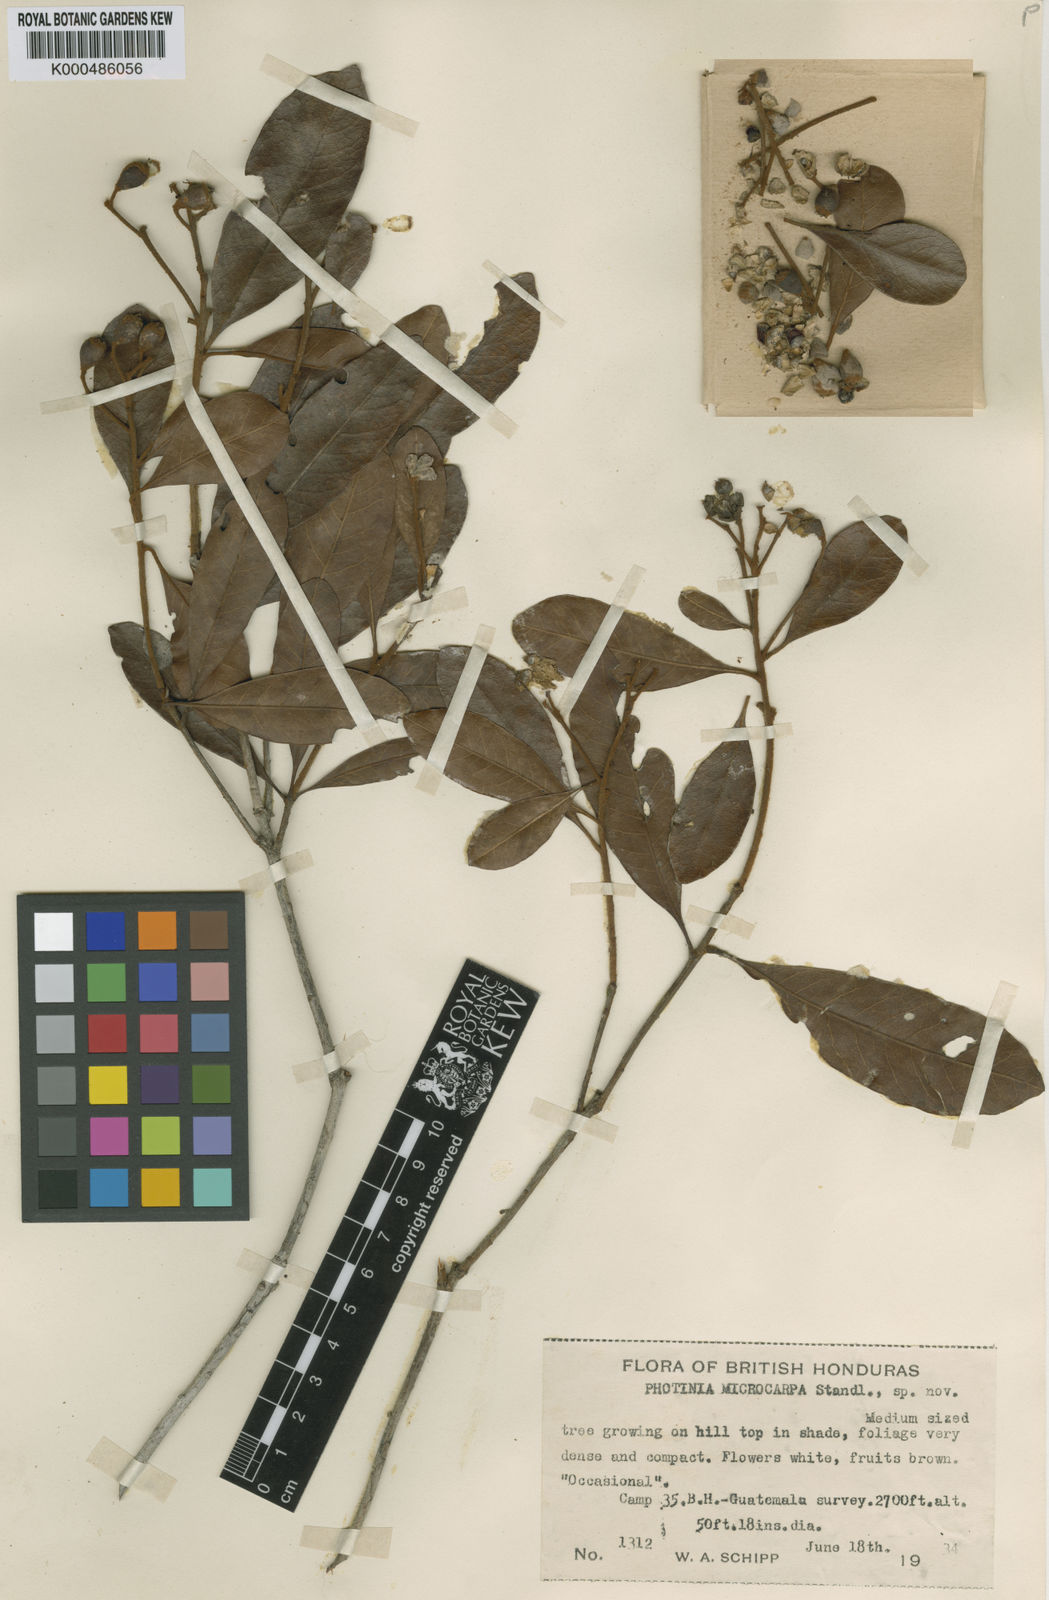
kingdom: Plantae
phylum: Tracheophyta
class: Magnoliopsida
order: Rosales
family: Rosaceae
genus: Phippsiomeles
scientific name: Phippsiomeles microcarpa
